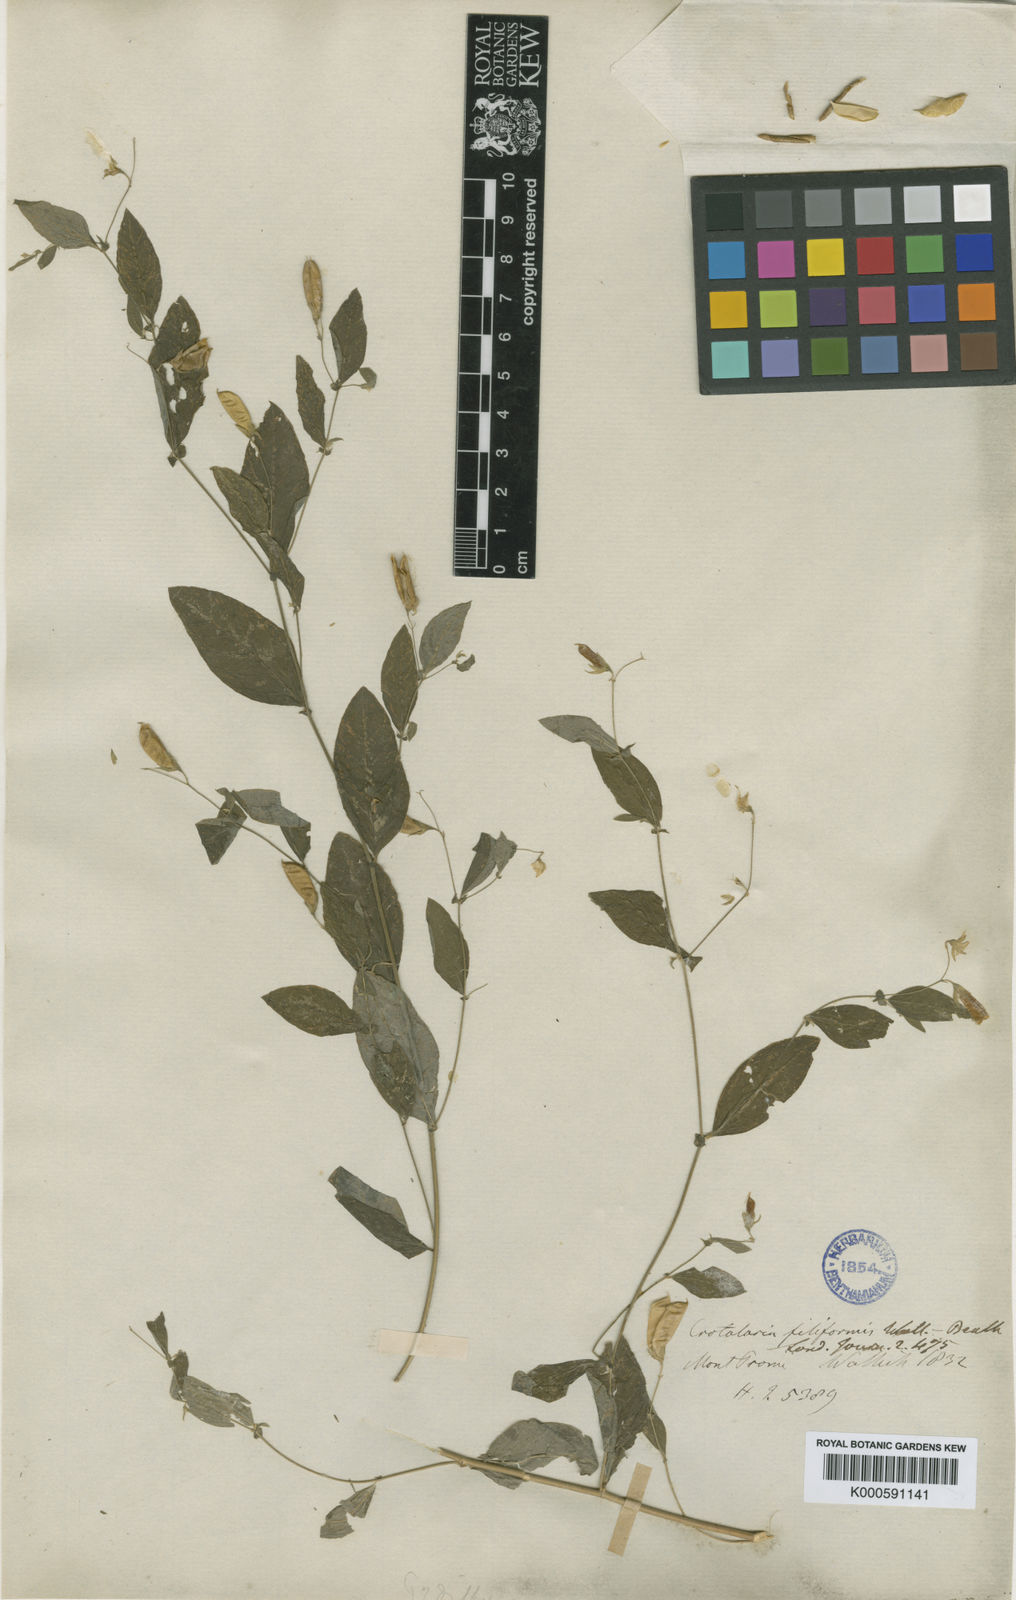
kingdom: Plantae
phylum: Tracheophyta
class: Magnoliopsida
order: Fabales
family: Fabaceae
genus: Crotalaria
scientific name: Crotalaria
